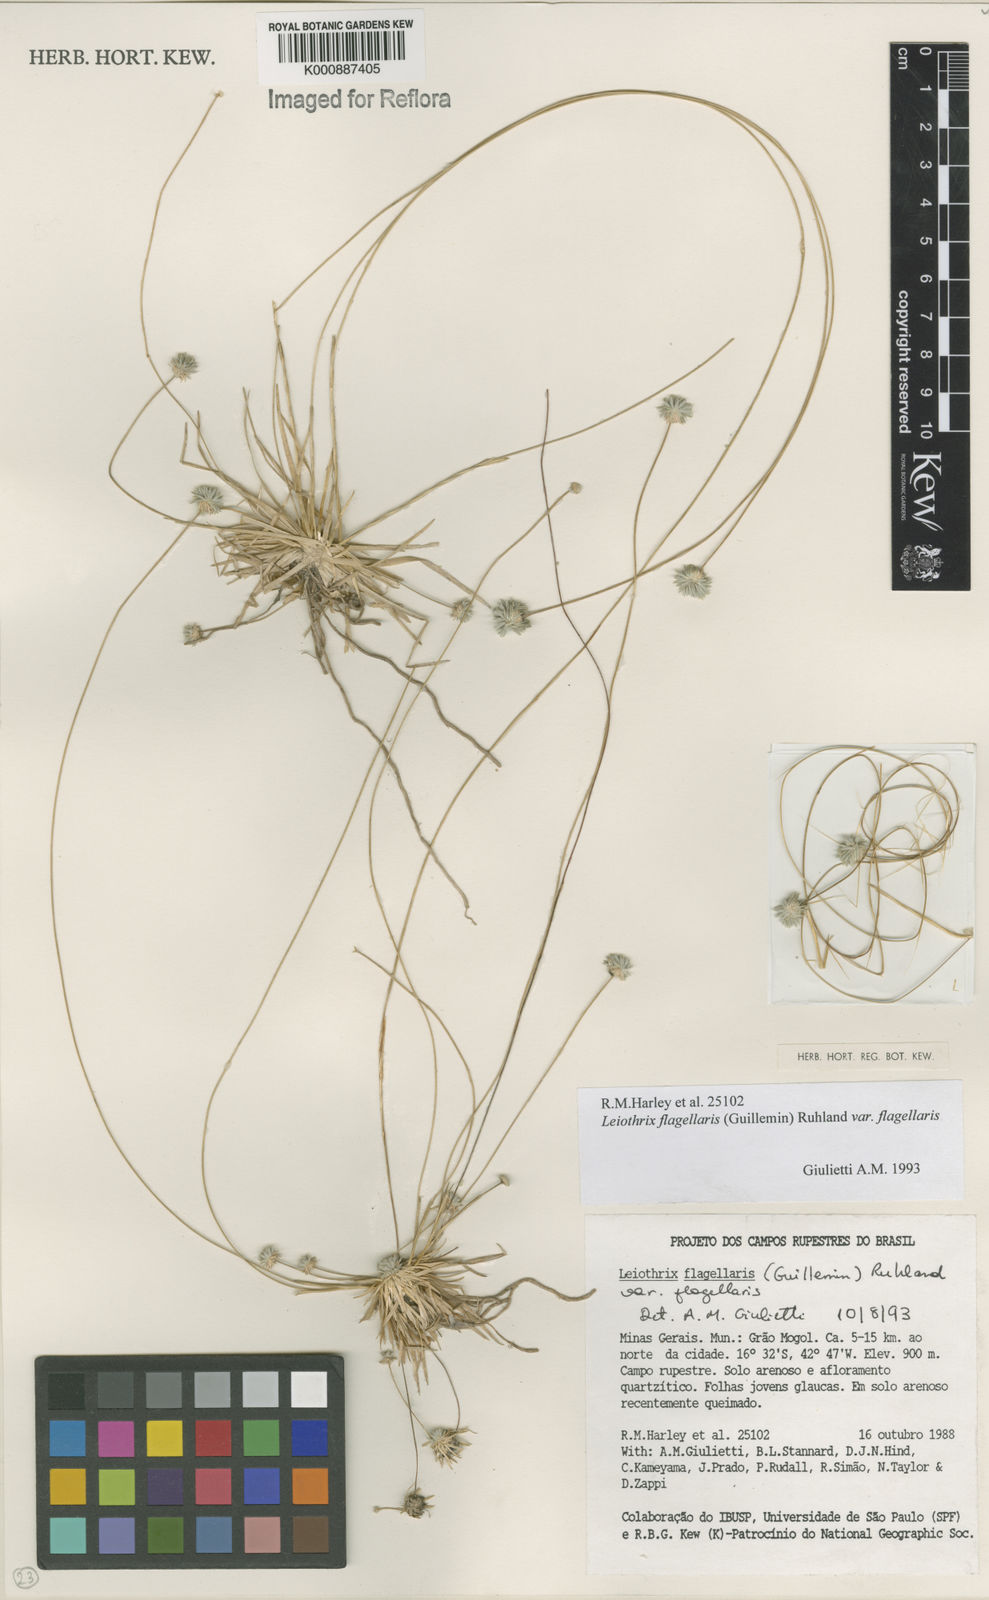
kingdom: Plantae
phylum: Tracheophyta
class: Liliopsida
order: Poales
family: Eriocaulaceae
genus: Leiothrix
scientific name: Leiothrix flagellaris
